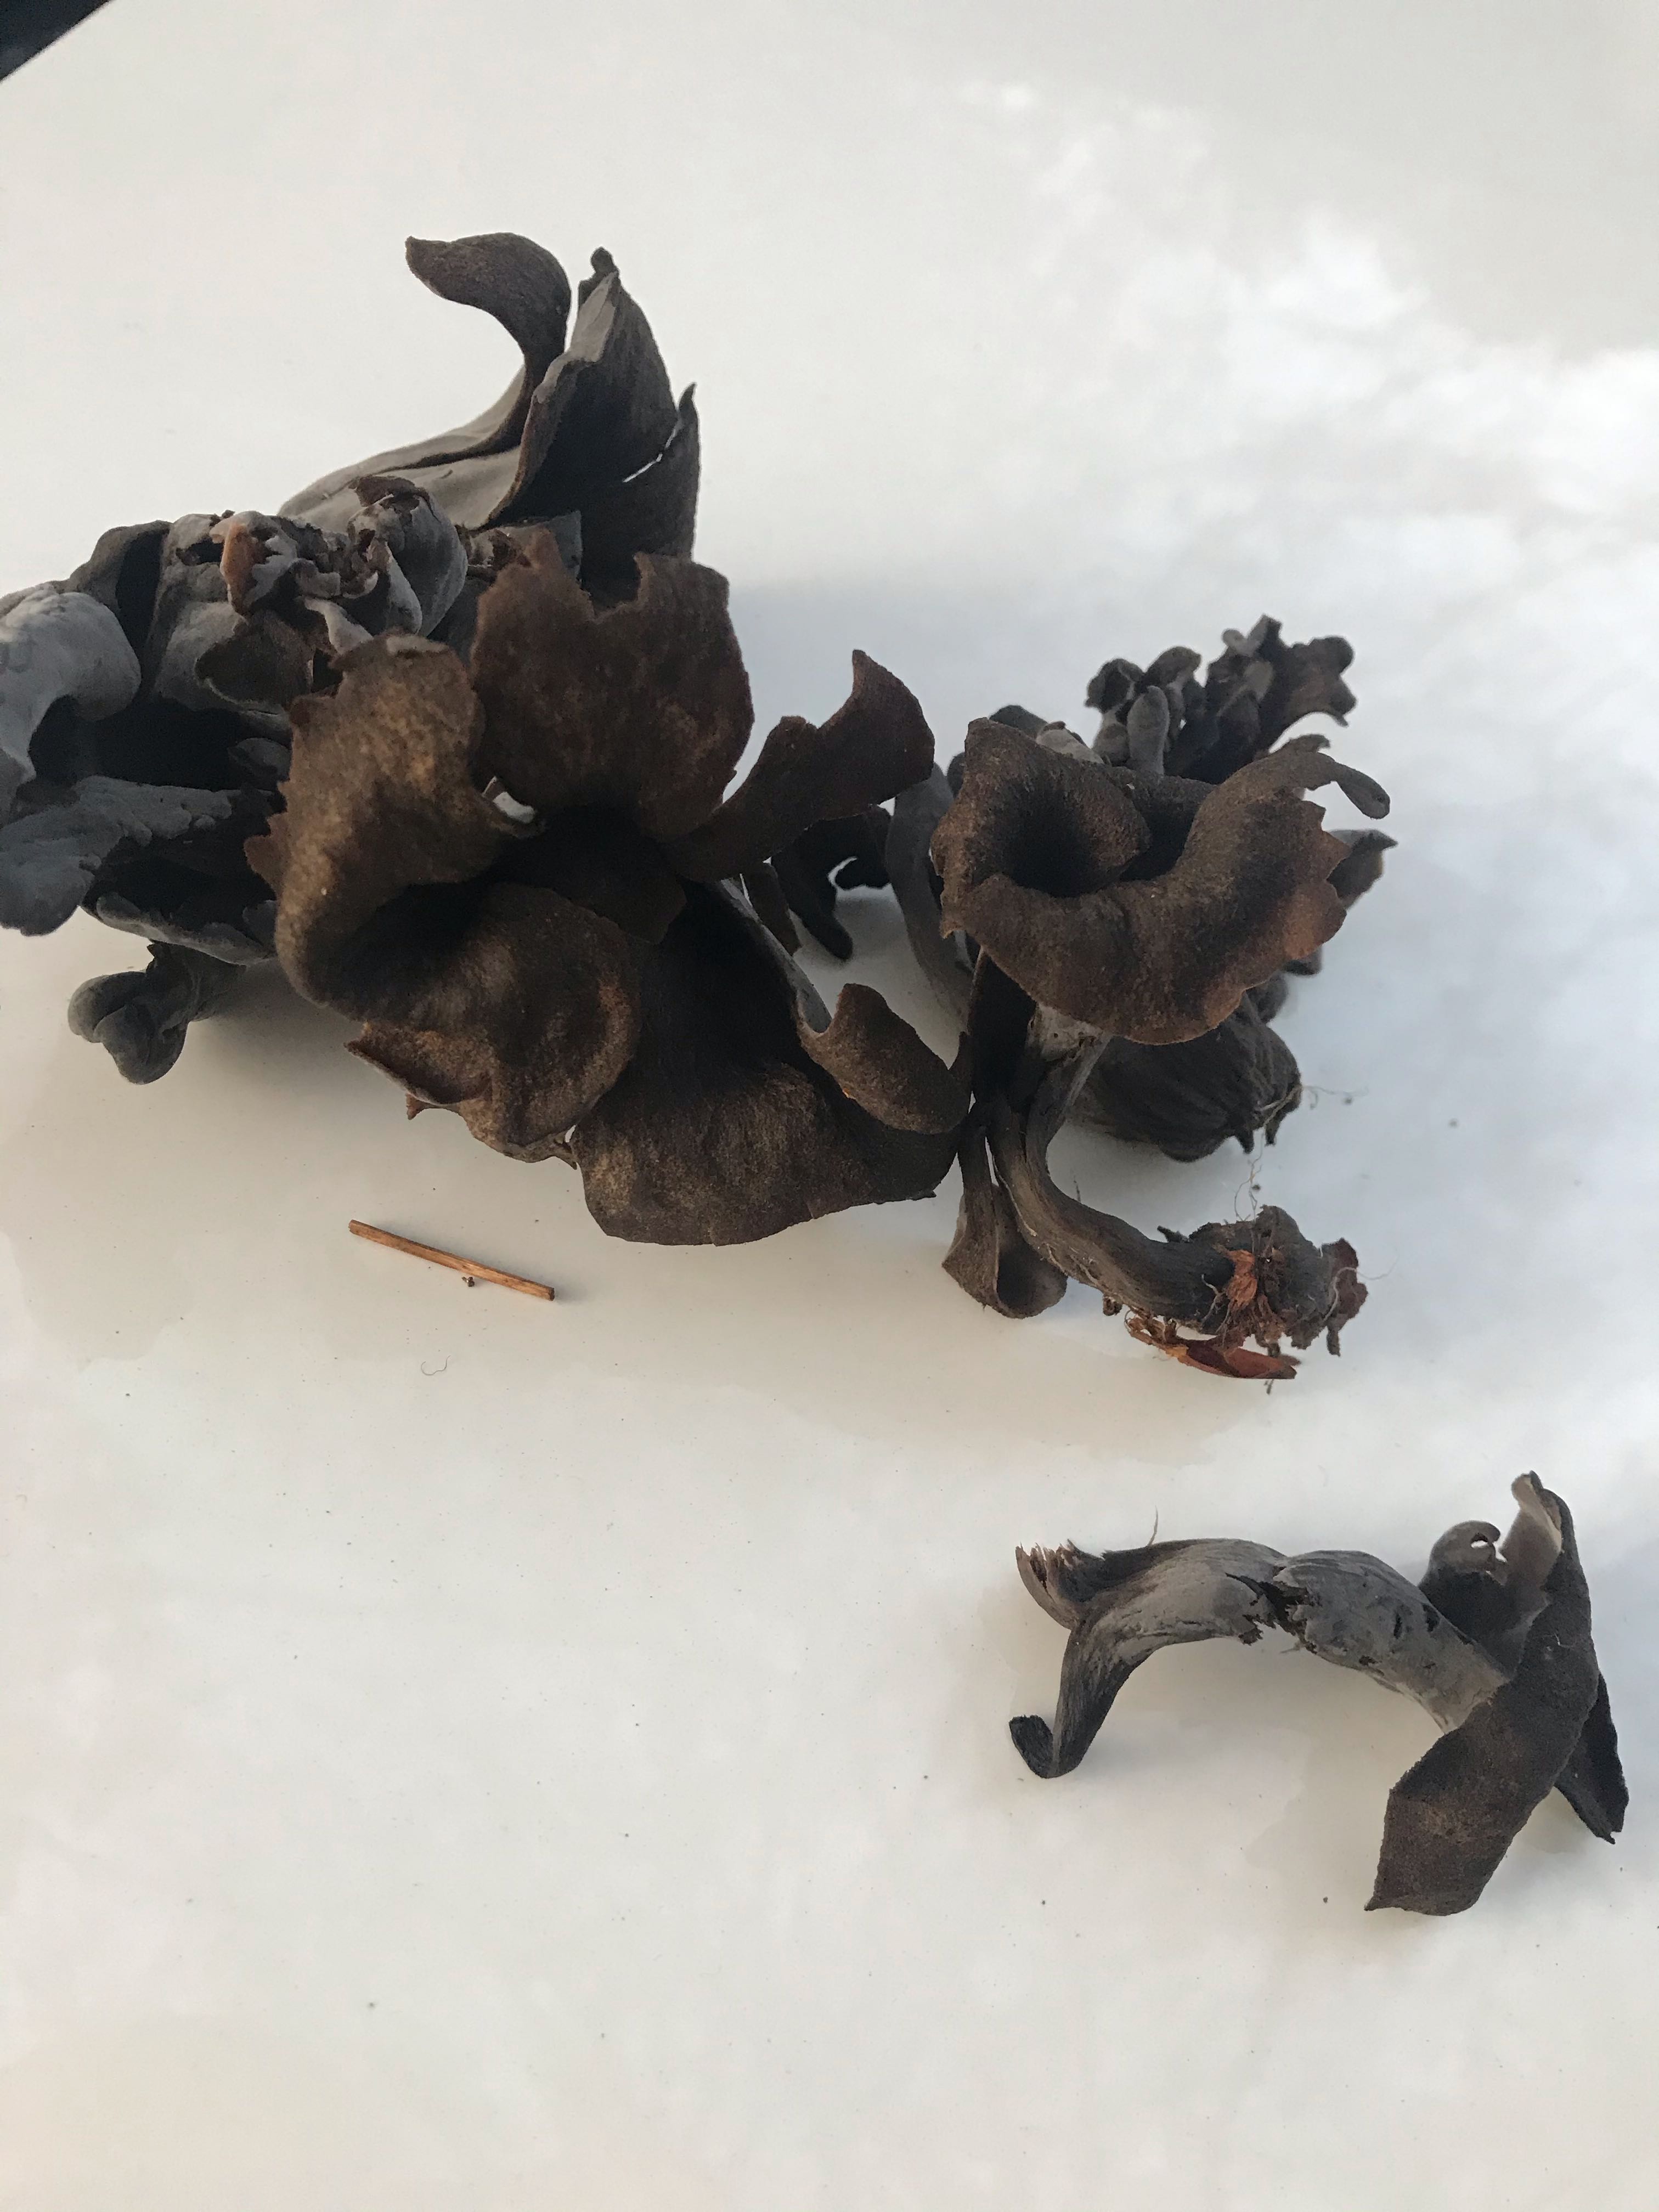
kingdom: Fungi
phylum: Basidiomycota
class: Agaricomycetes
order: Cantharellales
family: Hydnaceae
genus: Craterellus
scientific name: Craterellus cornucopioides
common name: trompetsvamp
